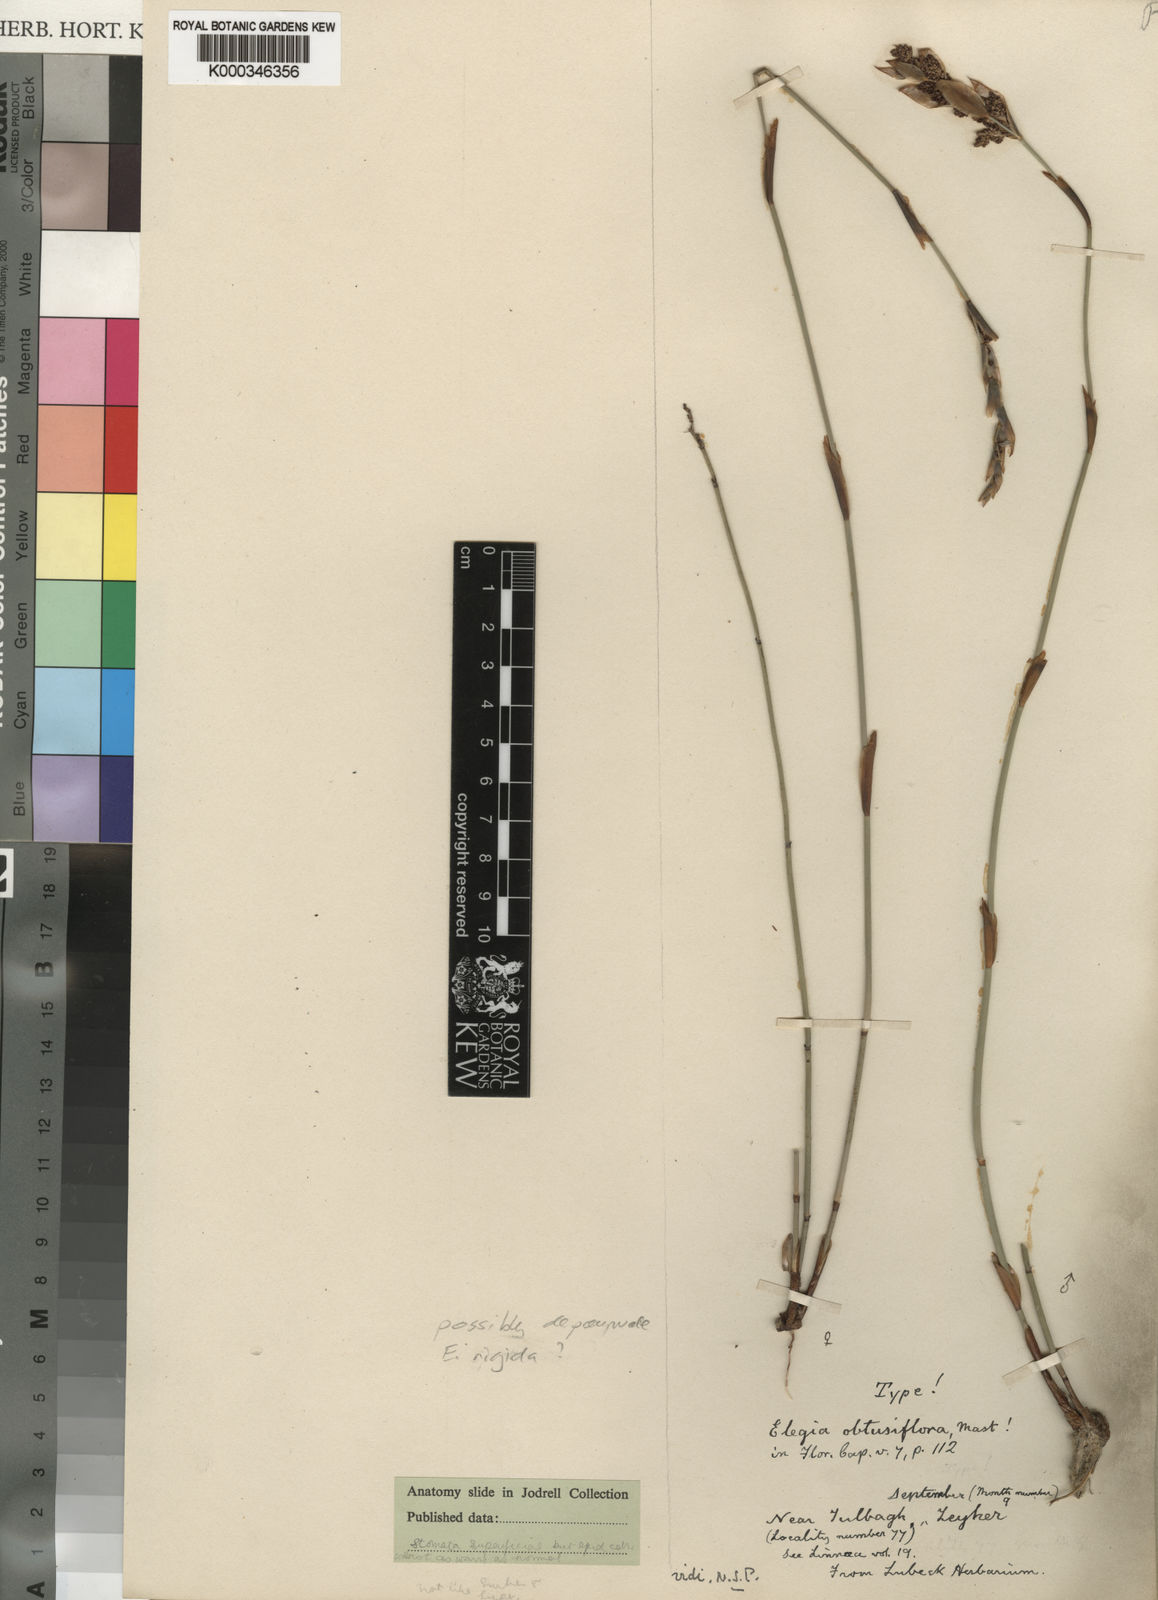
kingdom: Plantae
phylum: Tracheophyta
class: Liliopsida
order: Poales
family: Restionaceae
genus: Elegia
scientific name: Elegia rigida
